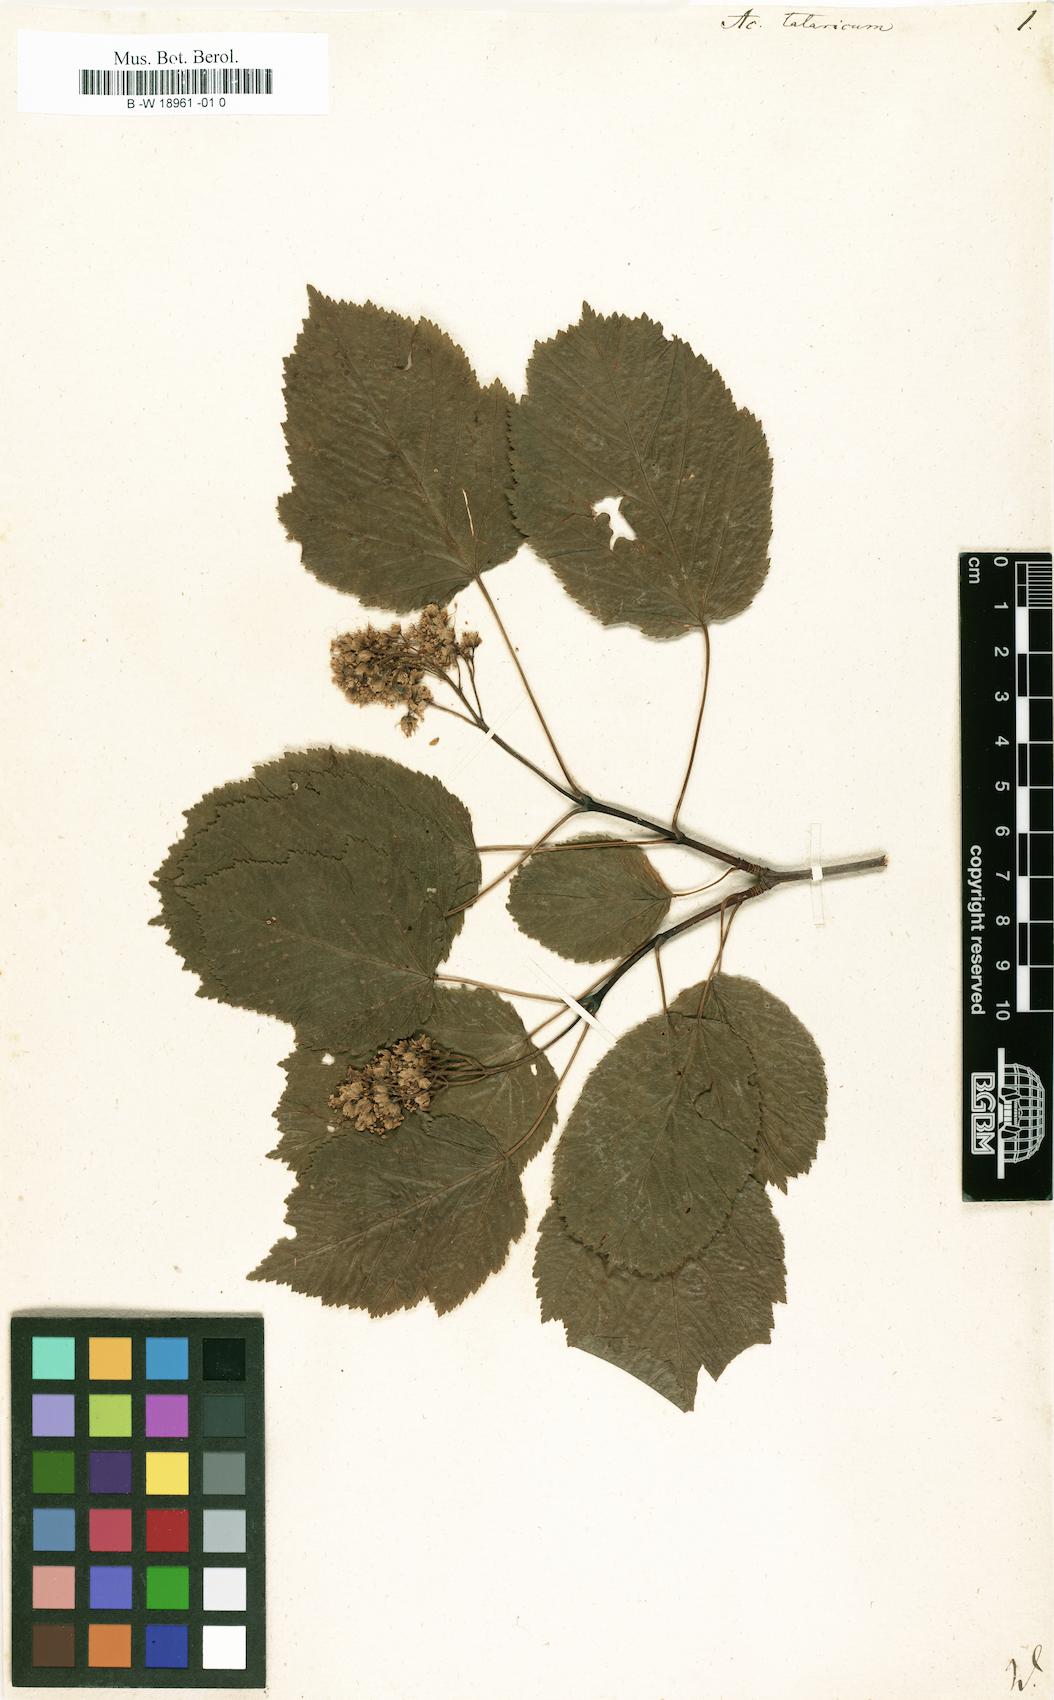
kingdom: Plantae
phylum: Tracheophyta
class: Magnoliopsida
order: Sapindales
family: Sapindaceae
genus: Acer
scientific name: Acer tataricum
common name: Tartar maple
